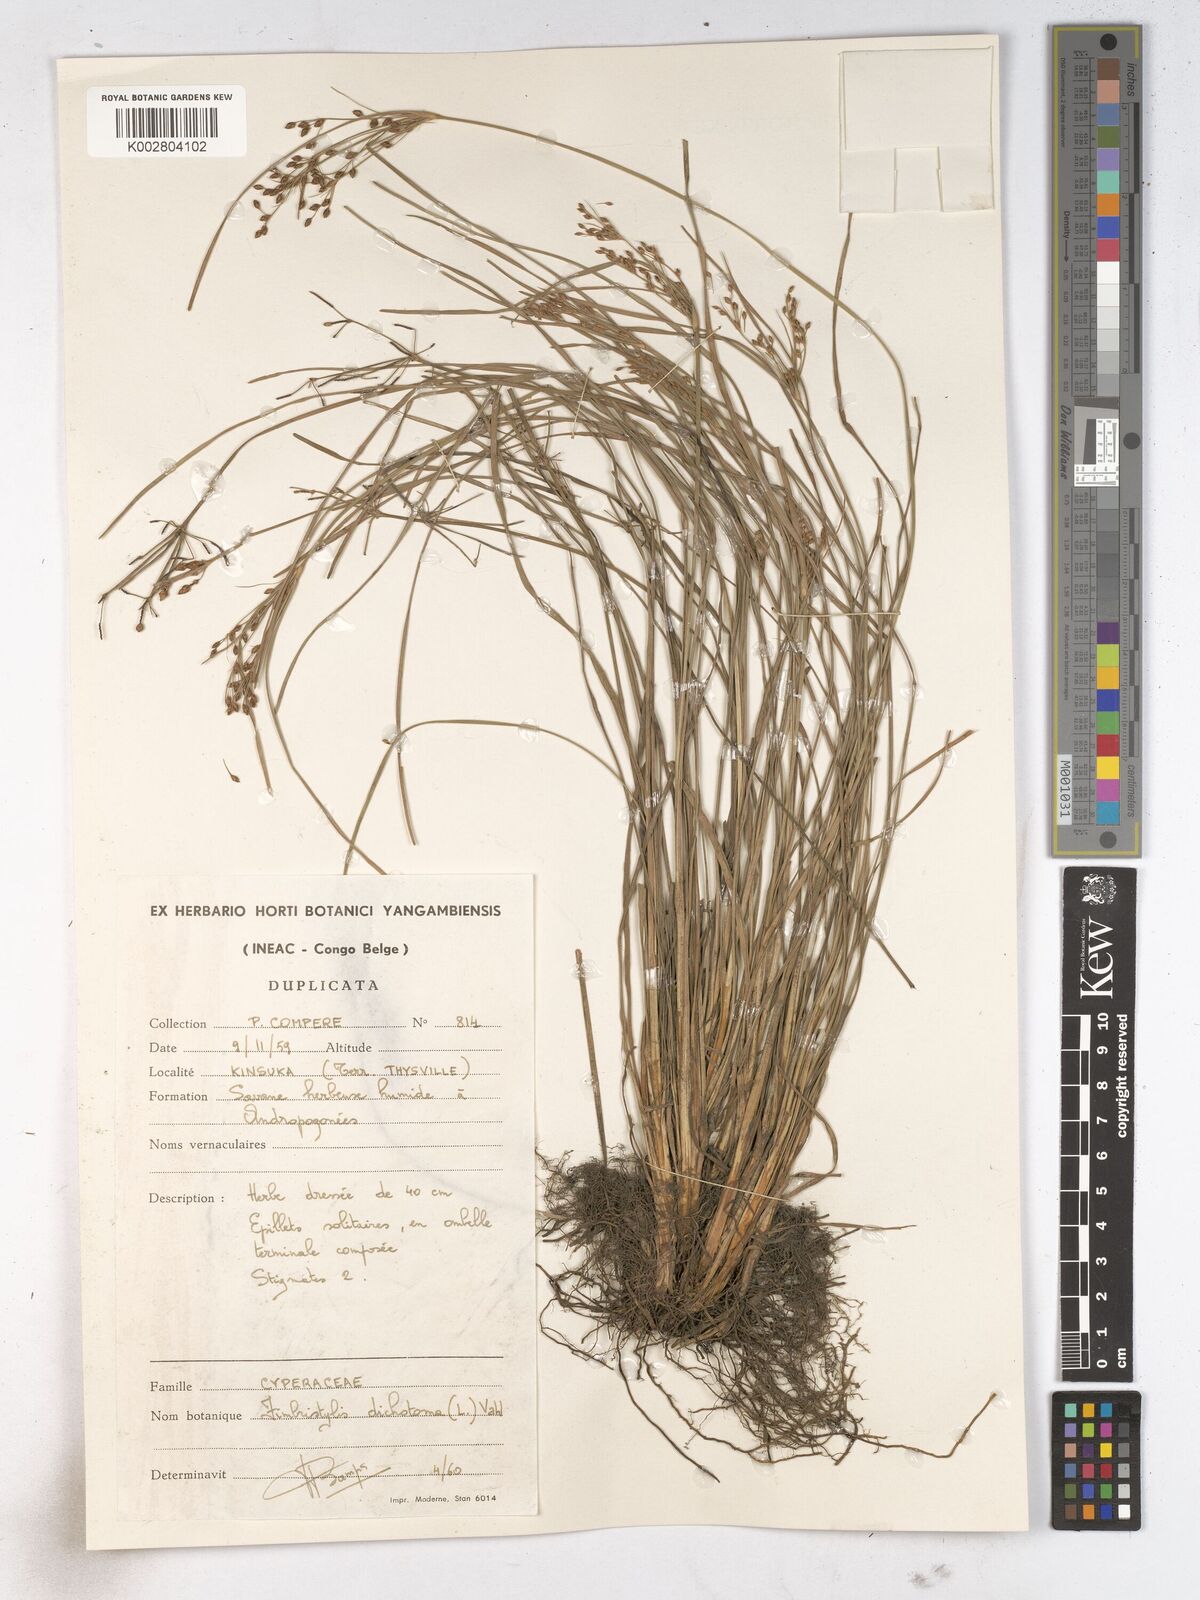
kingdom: Plantae
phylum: Tracheophyta
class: Liliopsida
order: Poales
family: Cyperaceae
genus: Fimbristylis
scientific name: Fimbristylis dichotoma
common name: Forked fimbry
